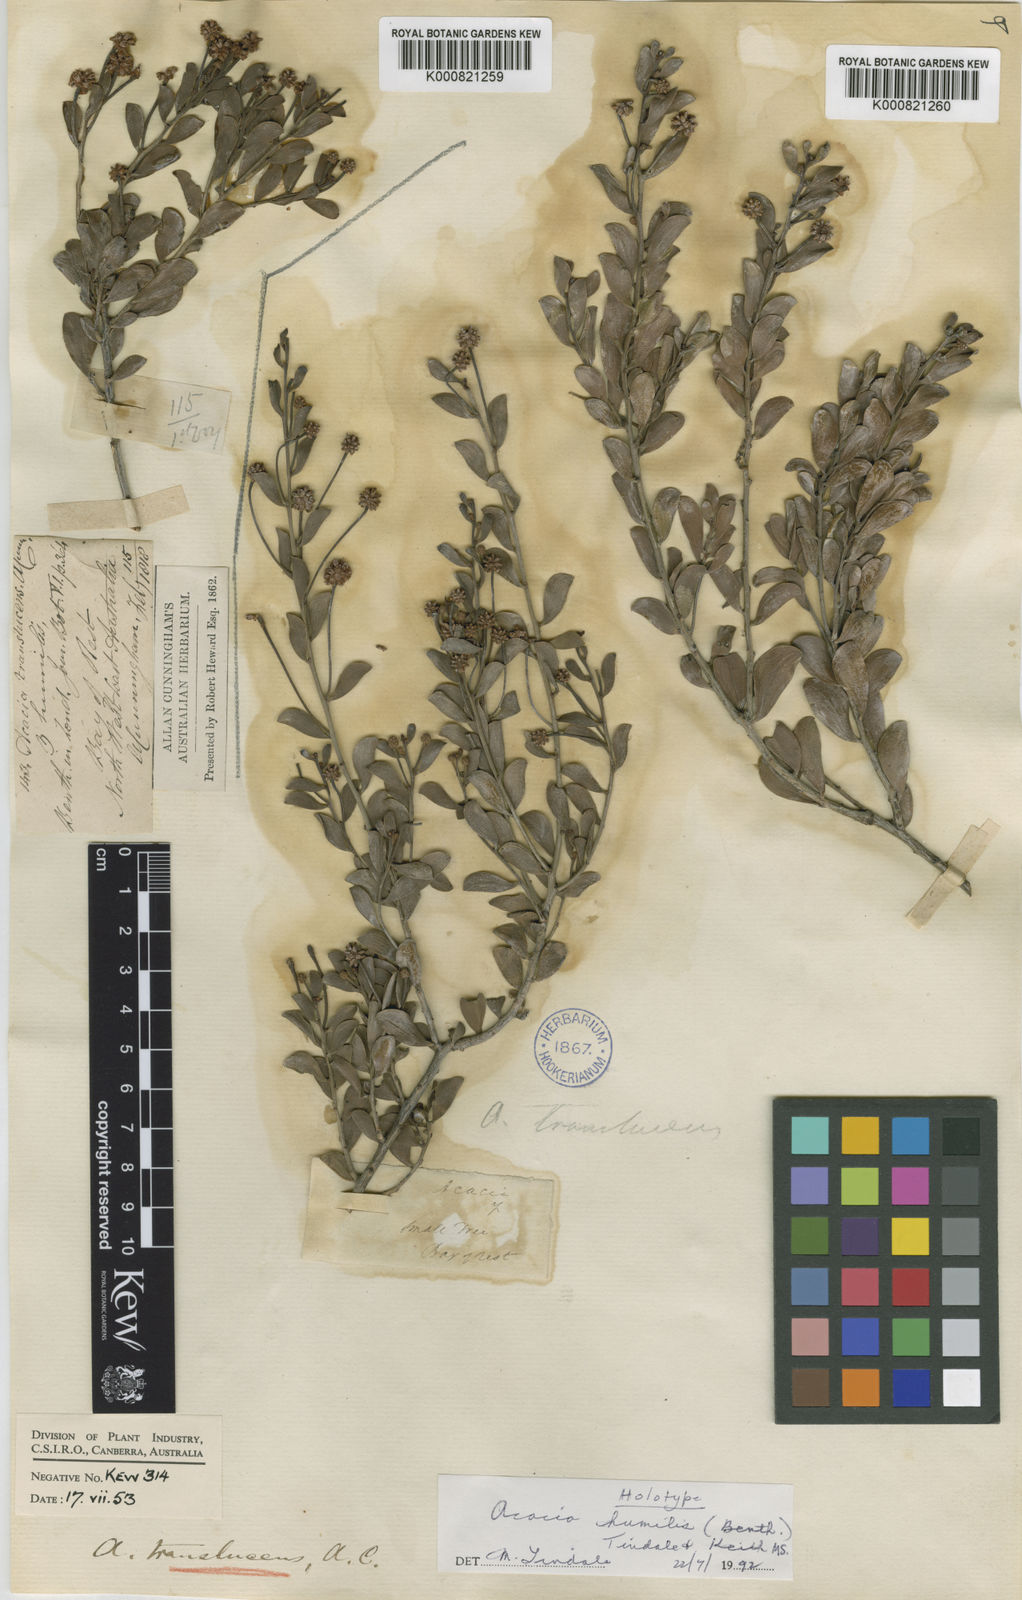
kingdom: Plantae
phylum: Tracheophyta
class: Magnoliopsida
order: Fabales
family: Fabaceae
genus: Acacia
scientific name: Acacia
